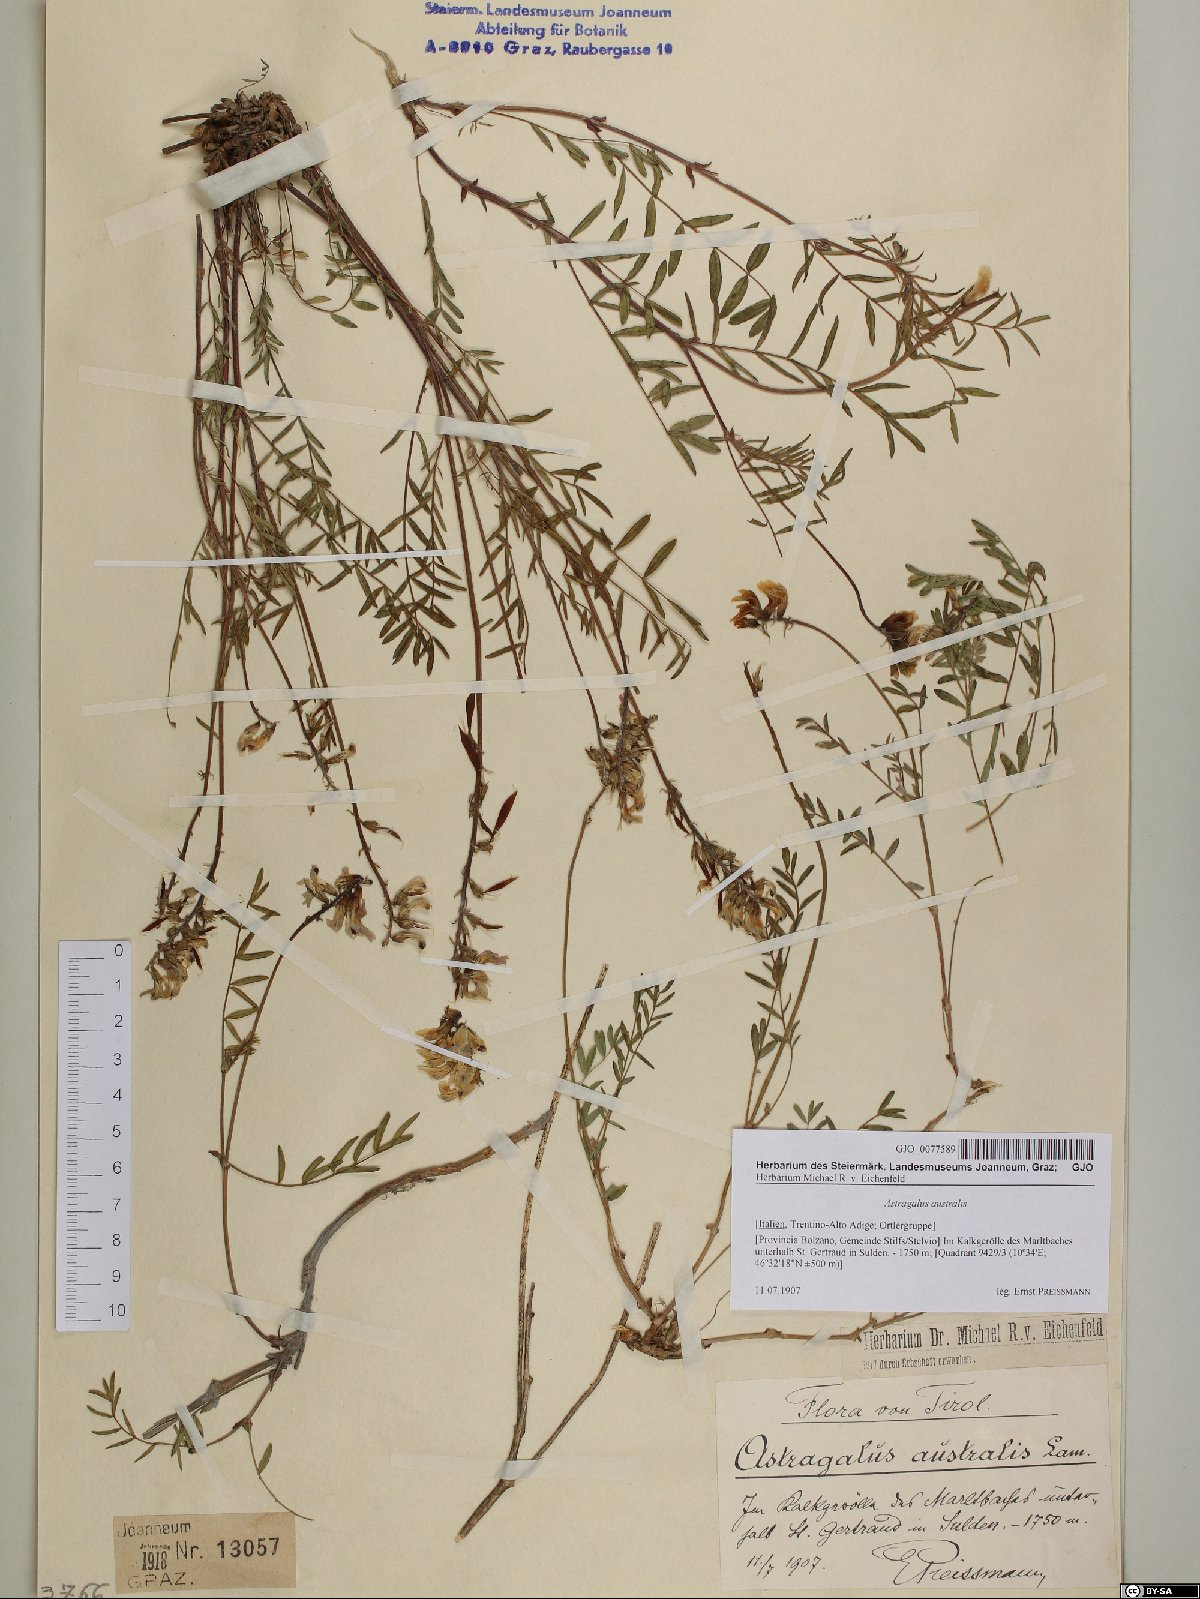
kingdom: Plantae
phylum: Tracheophyta
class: Magnoliopsida
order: Fabales
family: Fabaceae
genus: Astragalus
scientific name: Astragalus australis
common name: Indian milk-vetch
